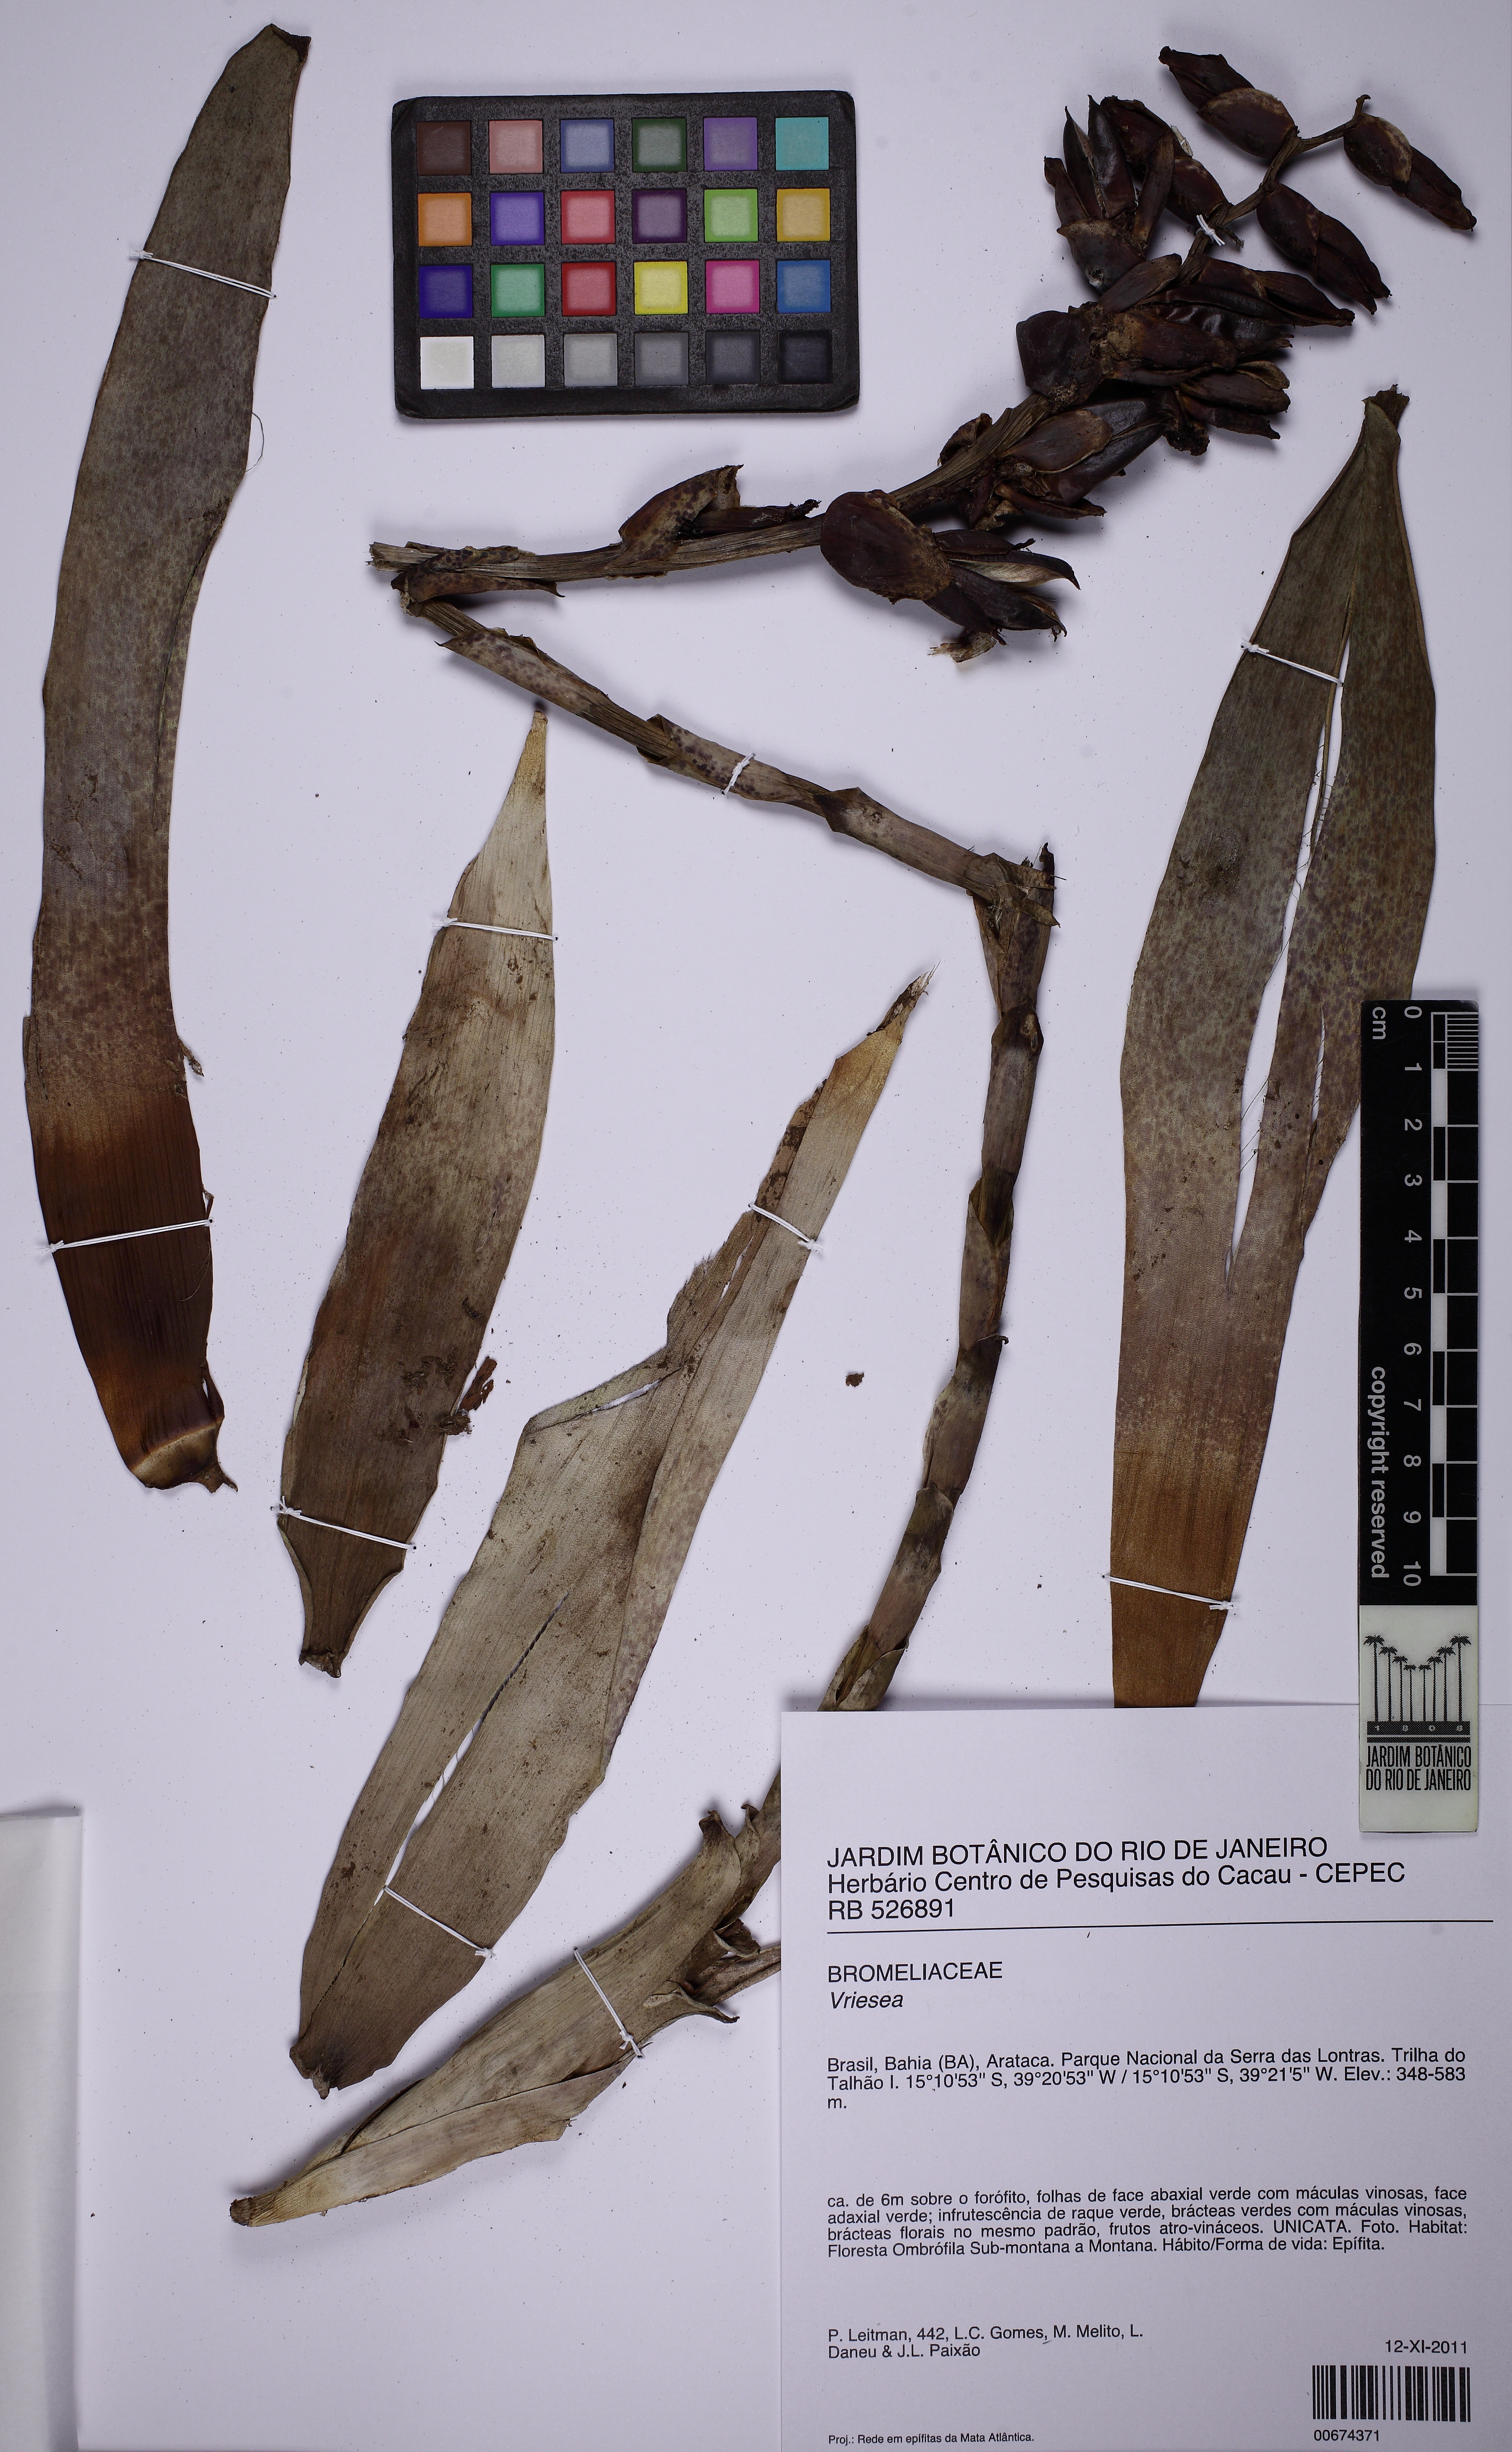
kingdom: Plantae
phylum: Tracheophyta
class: Liliopsida
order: Poales
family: Bromeliaceae
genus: Vriesea
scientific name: Vriesea pulchra
